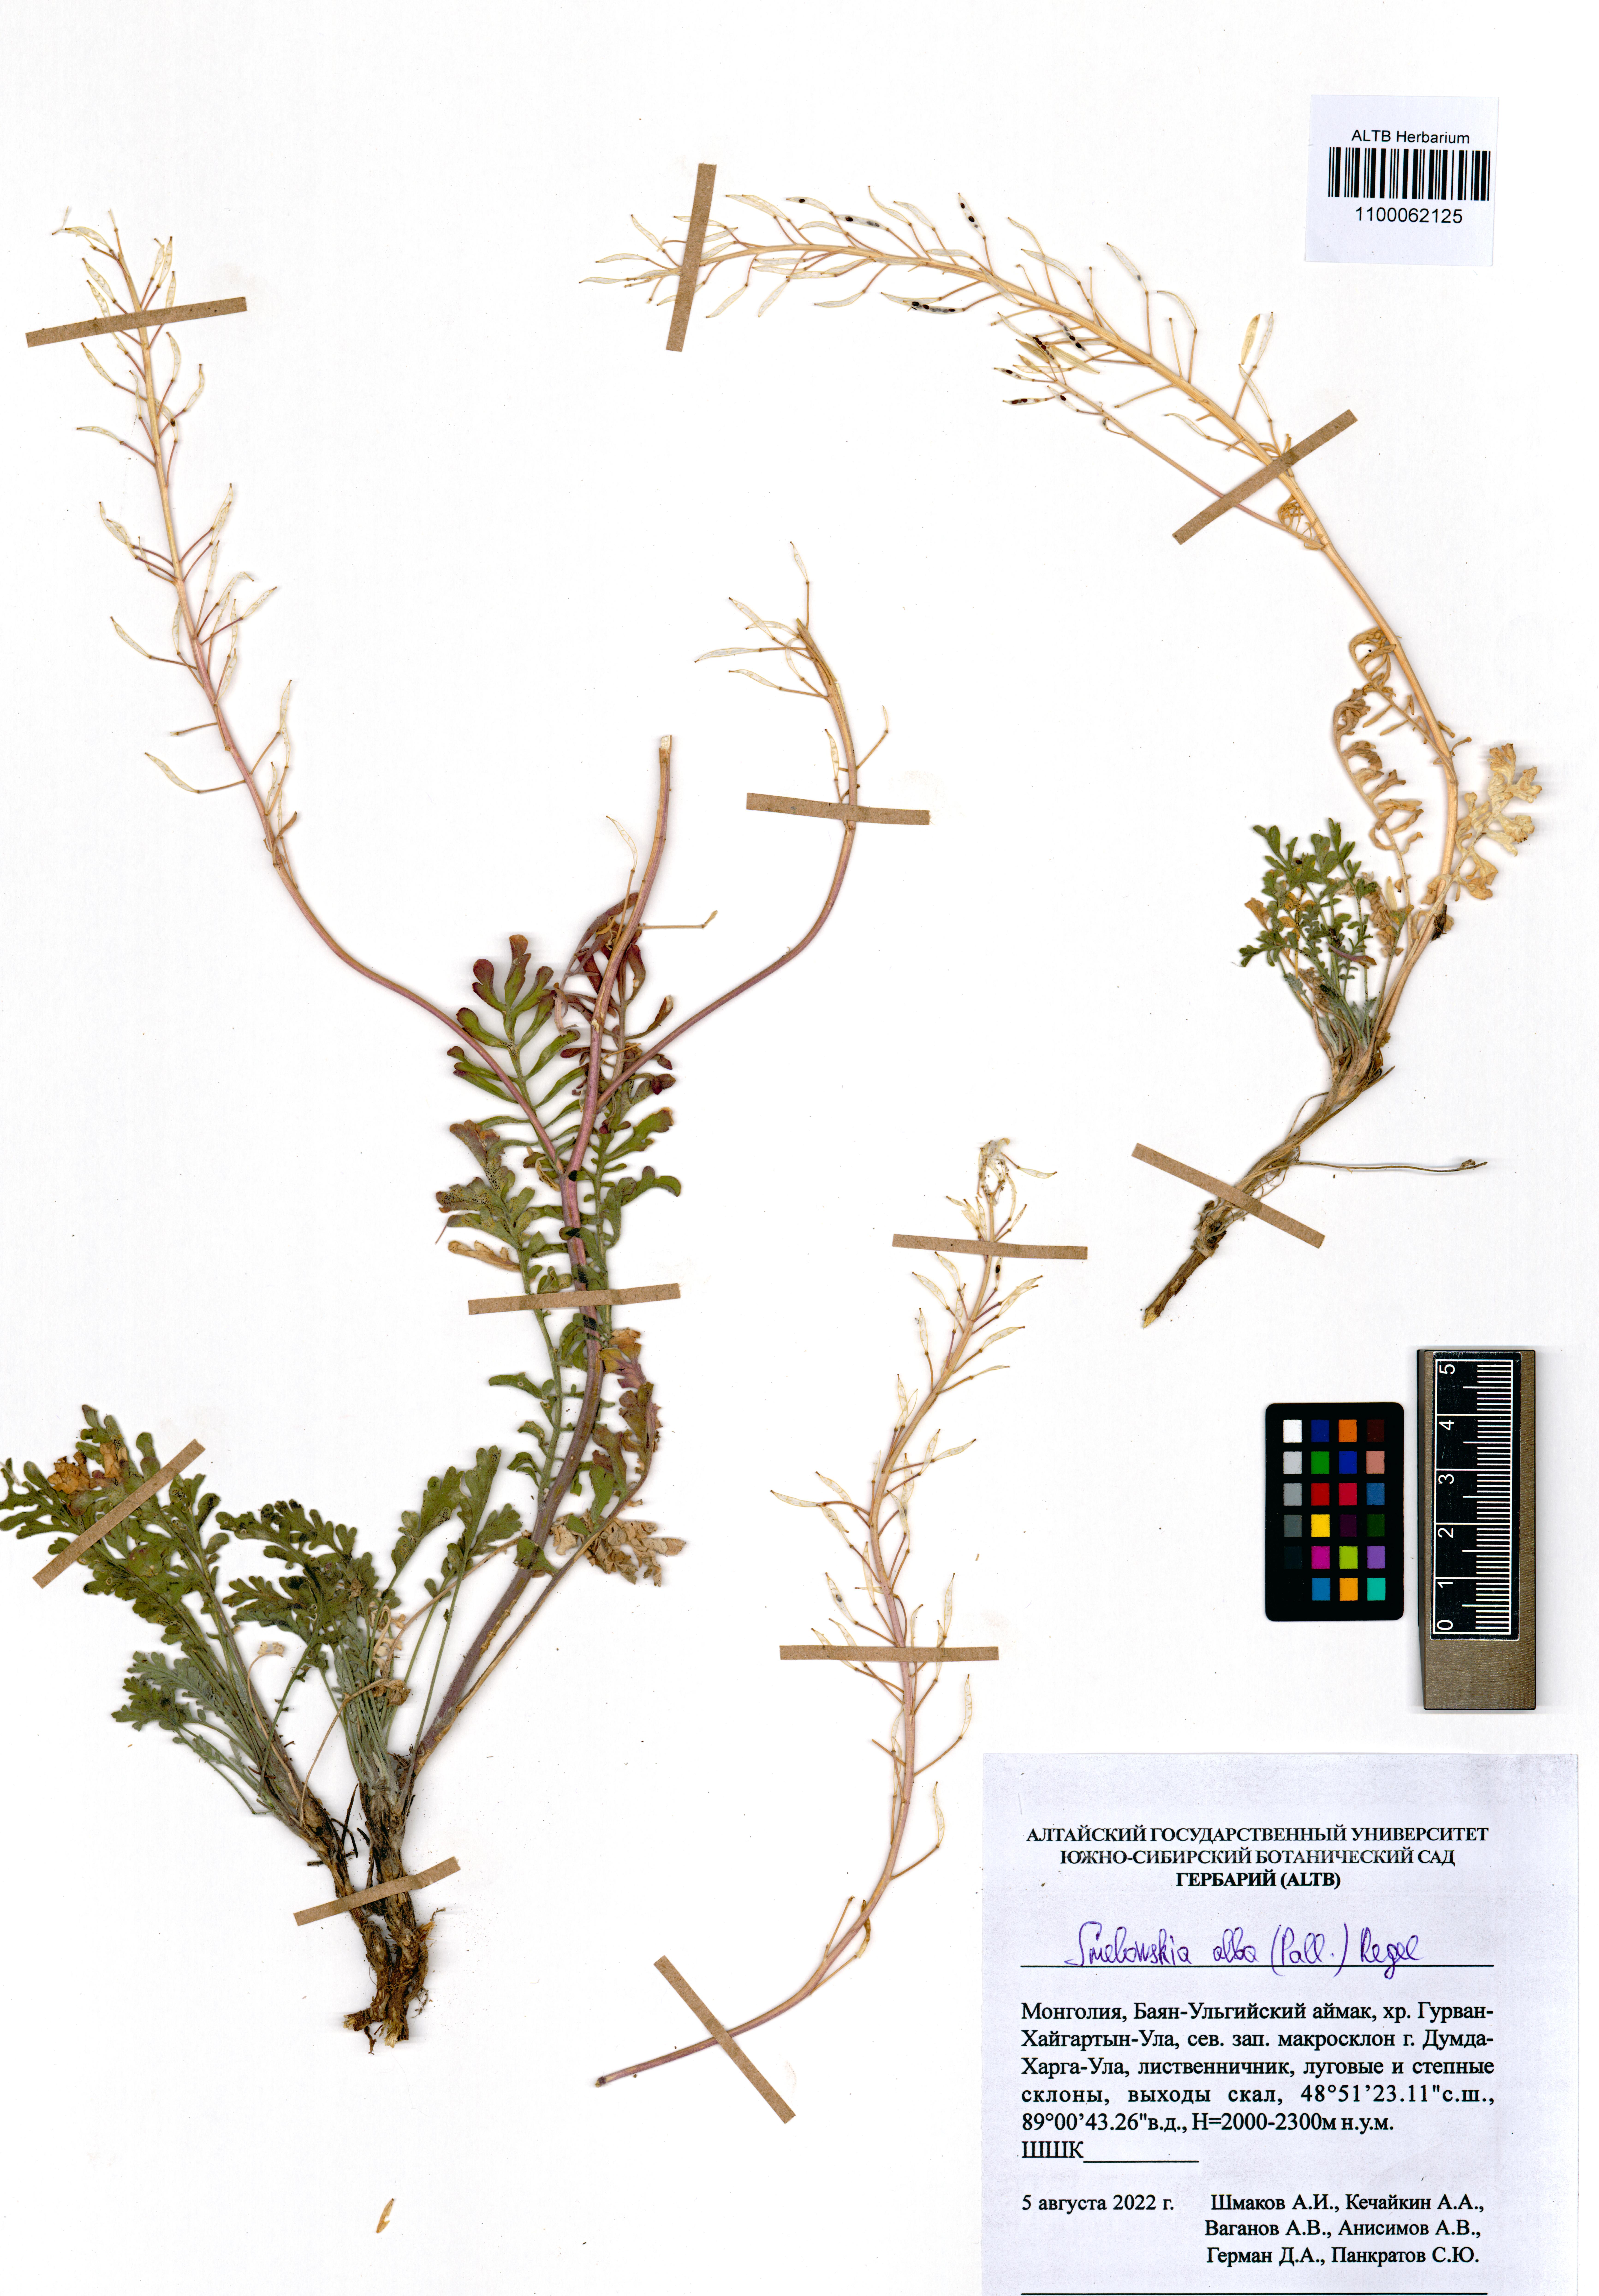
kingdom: Plantae
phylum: Tracheophyta
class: Magnoliopsida
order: Brassicales
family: Brassicaceae
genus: Smelowskia
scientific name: Smelowskia alba
